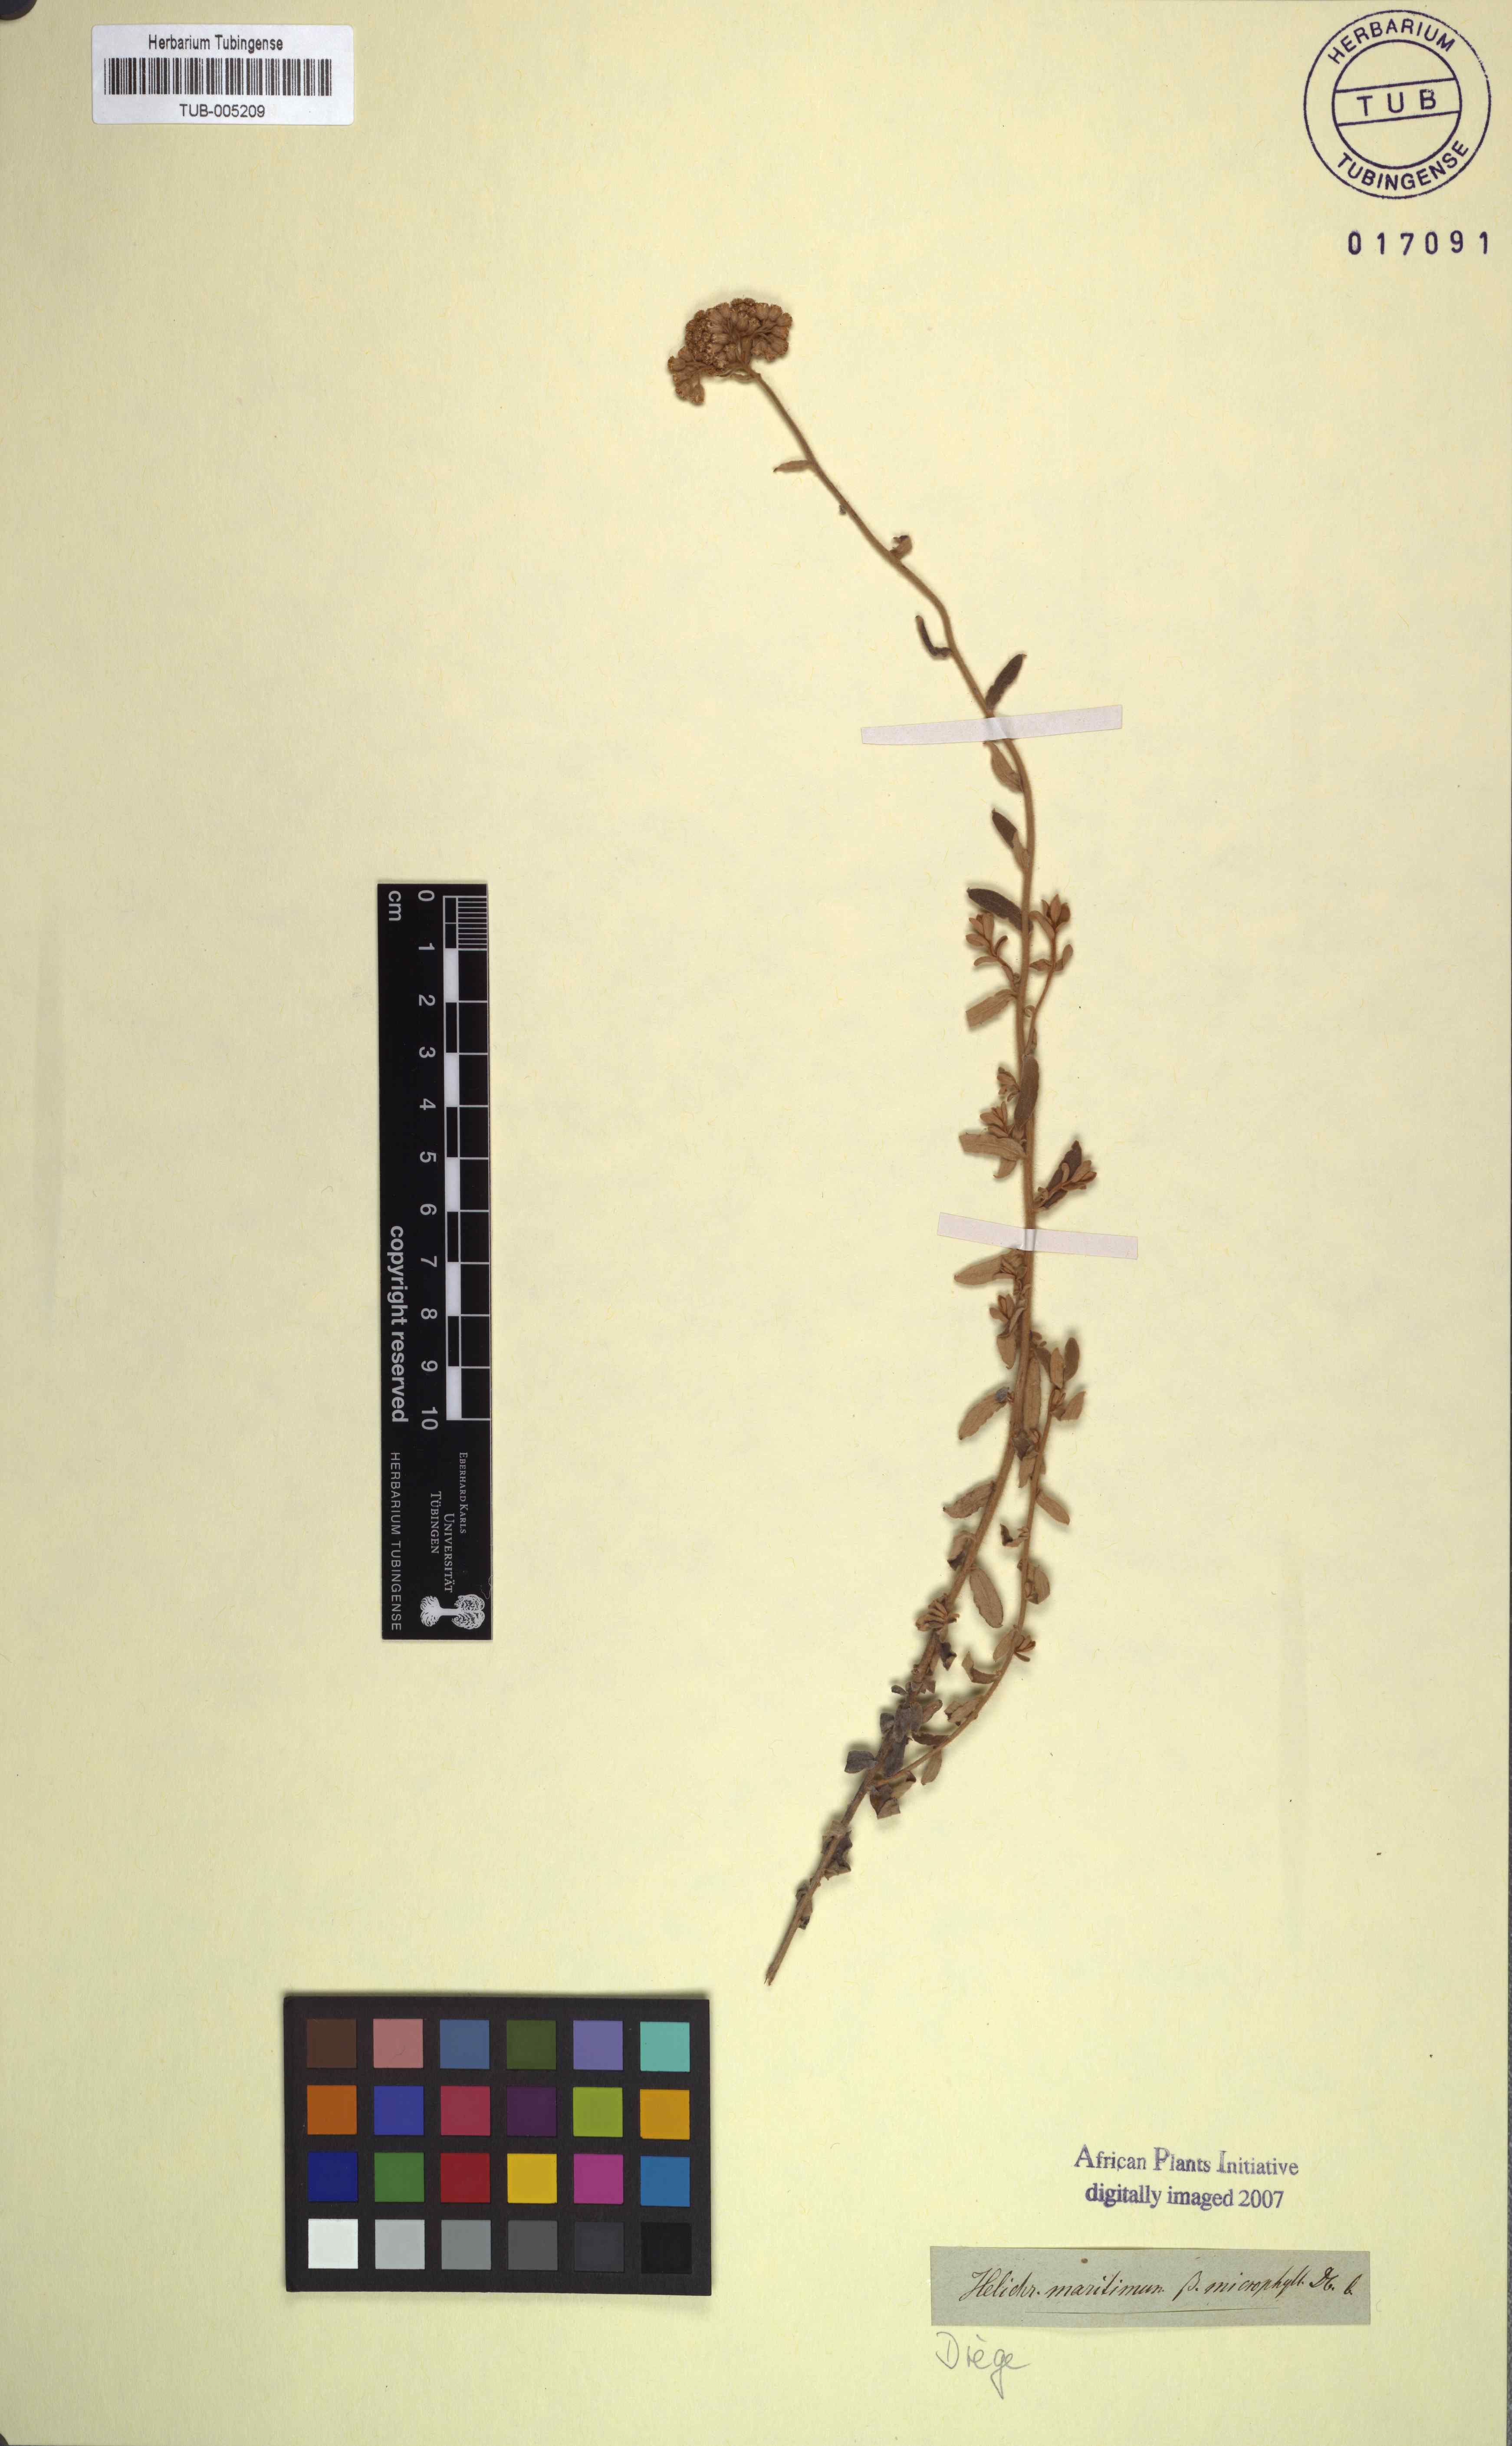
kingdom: Plantae
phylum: Tracheophyta
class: Magnoliopsida
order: Asterales
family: Asteraceae
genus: Helichrysum
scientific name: Helichrysum dasyanthum
